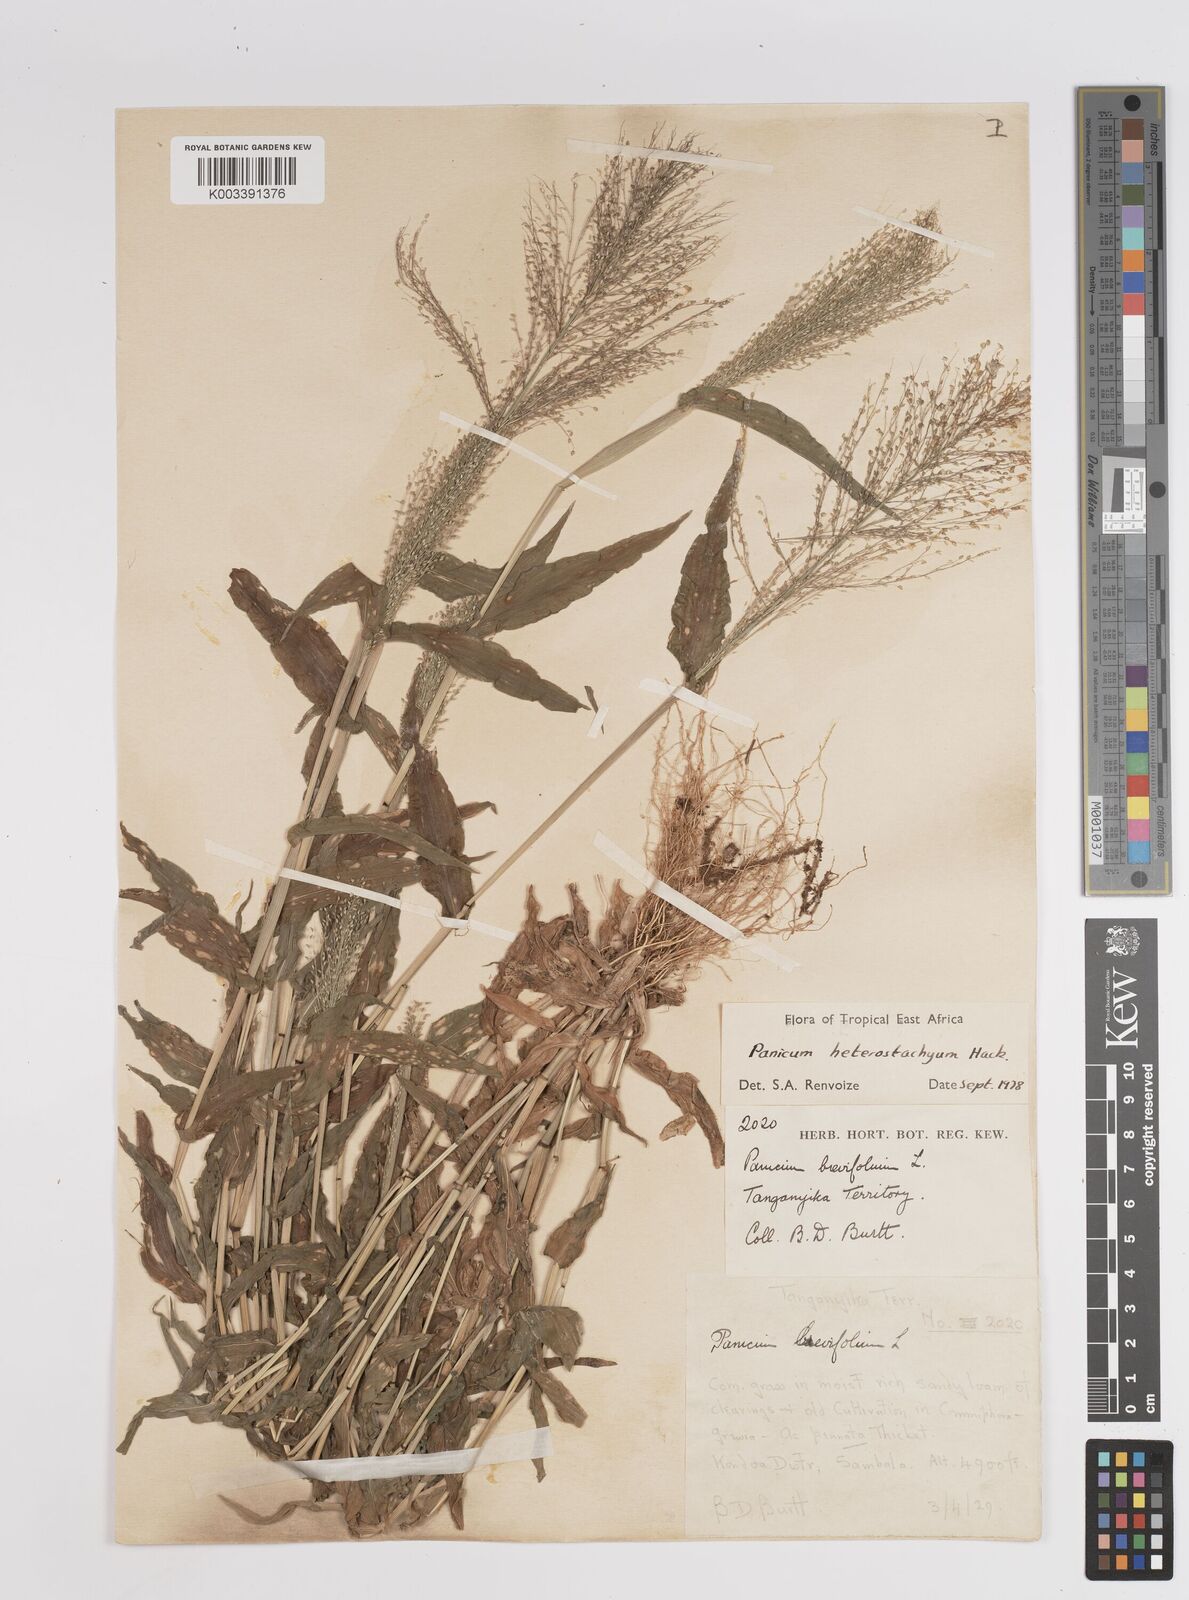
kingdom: Plantae
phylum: Tracheophyta
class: Liliopsida
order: Poales
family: Poaceae
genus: Panicum
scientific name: Panicum hirtum
